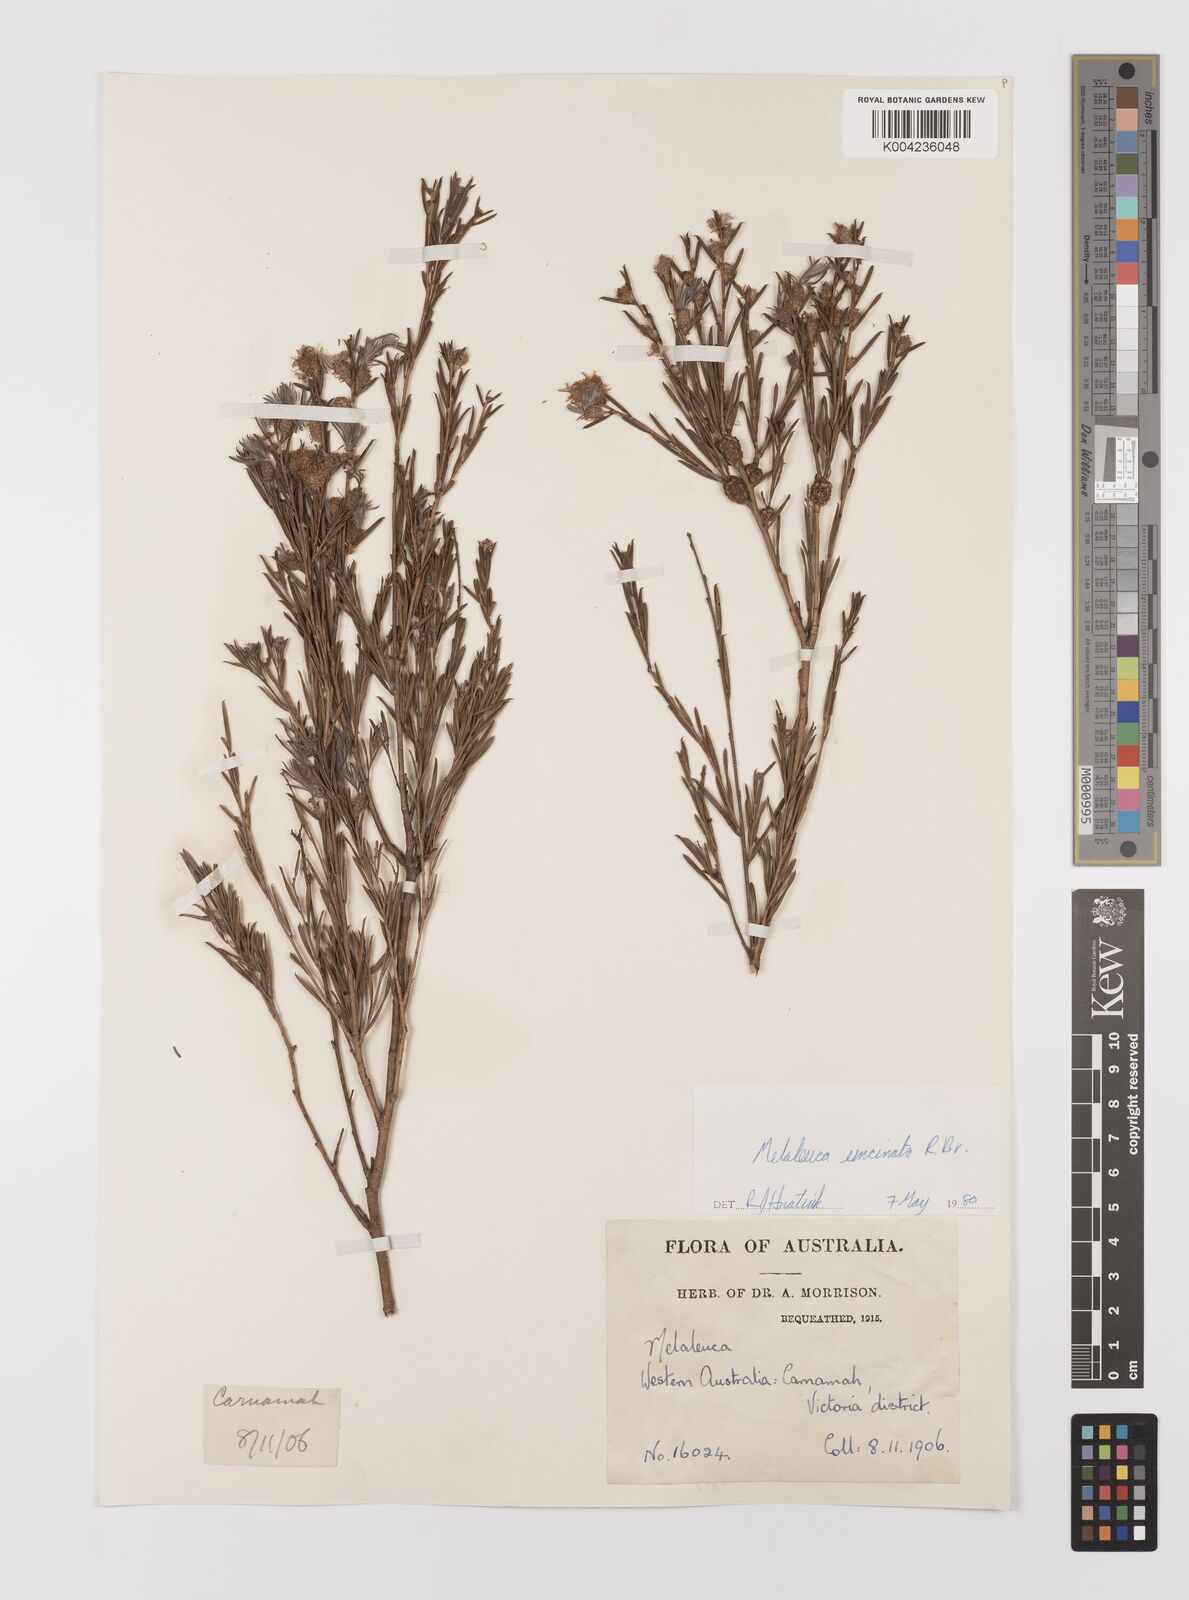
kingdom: Plantae
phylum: Tracheophyta
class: Magnoliopsida
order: Myrtales
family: Myrtaceae
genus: Melaleuca
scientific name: Melaleuca uncinata
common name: Broom honey myrtle
